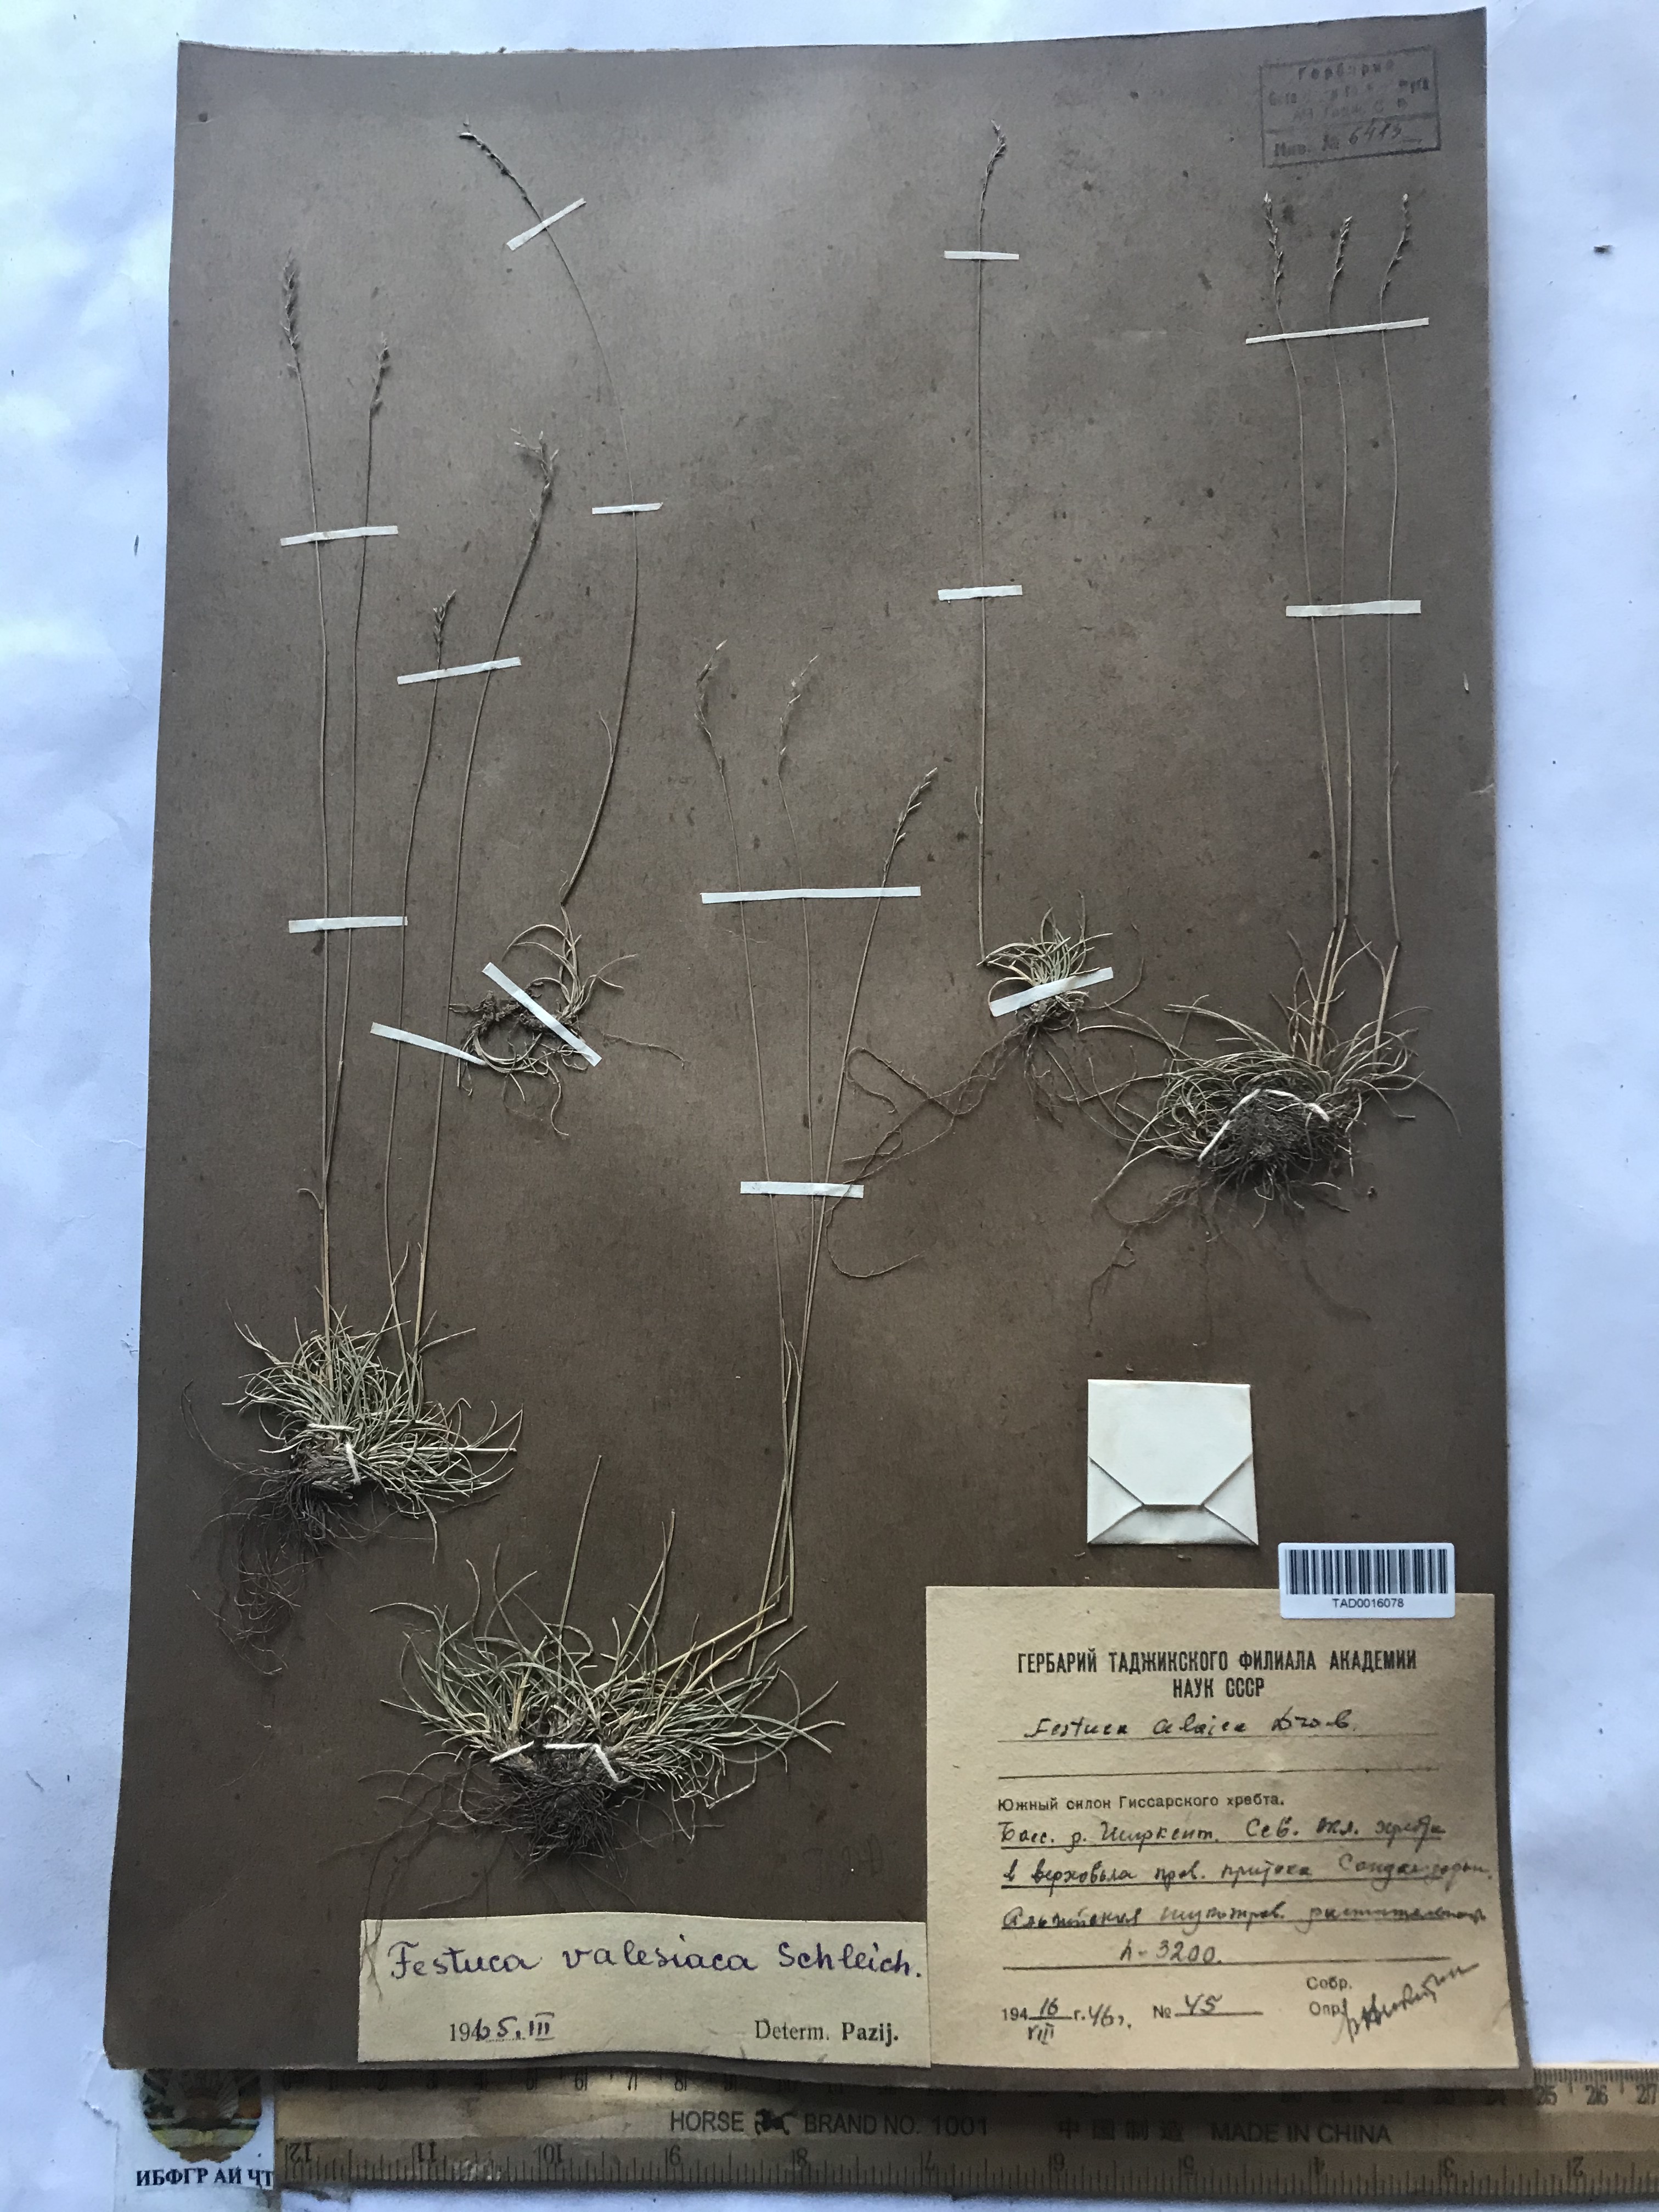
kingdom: Plantae
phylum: Tracheophyta
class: Liliopsida
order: Poales
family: Poaceae
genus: Festuca
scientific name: Festuca valesiaca
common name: Volga fescue
